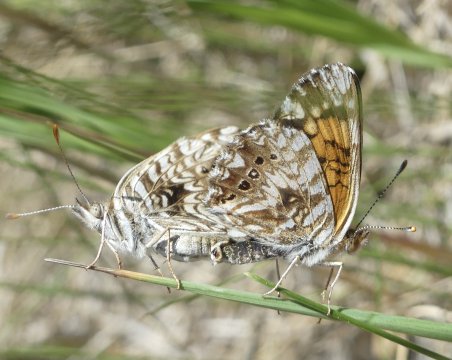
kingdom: Animalia
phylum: Arthropoda
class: Insecta
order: Lepidoptera
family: Nymphalidae
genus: Chlosyne
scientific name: Chlosyne gorgone
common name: Gorgone Checkerspot
